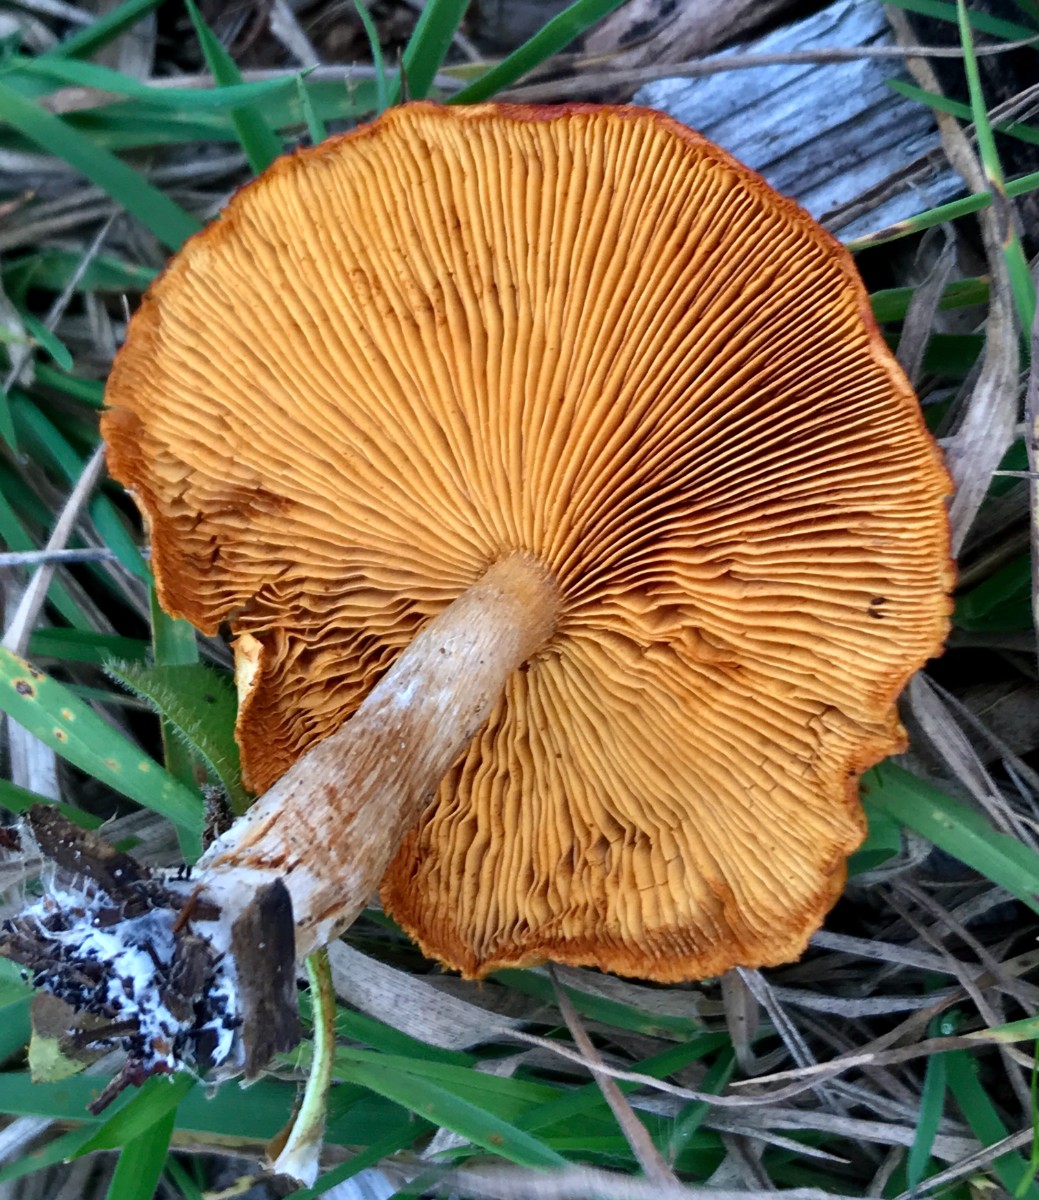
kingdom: Fungi
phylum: Basidiomycota
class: Agaricomycetes
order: Agaricales
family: Hymenogastraceae
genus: Gymnopilus
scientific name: Gymnopilus penetrans
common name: plettet flammehat
